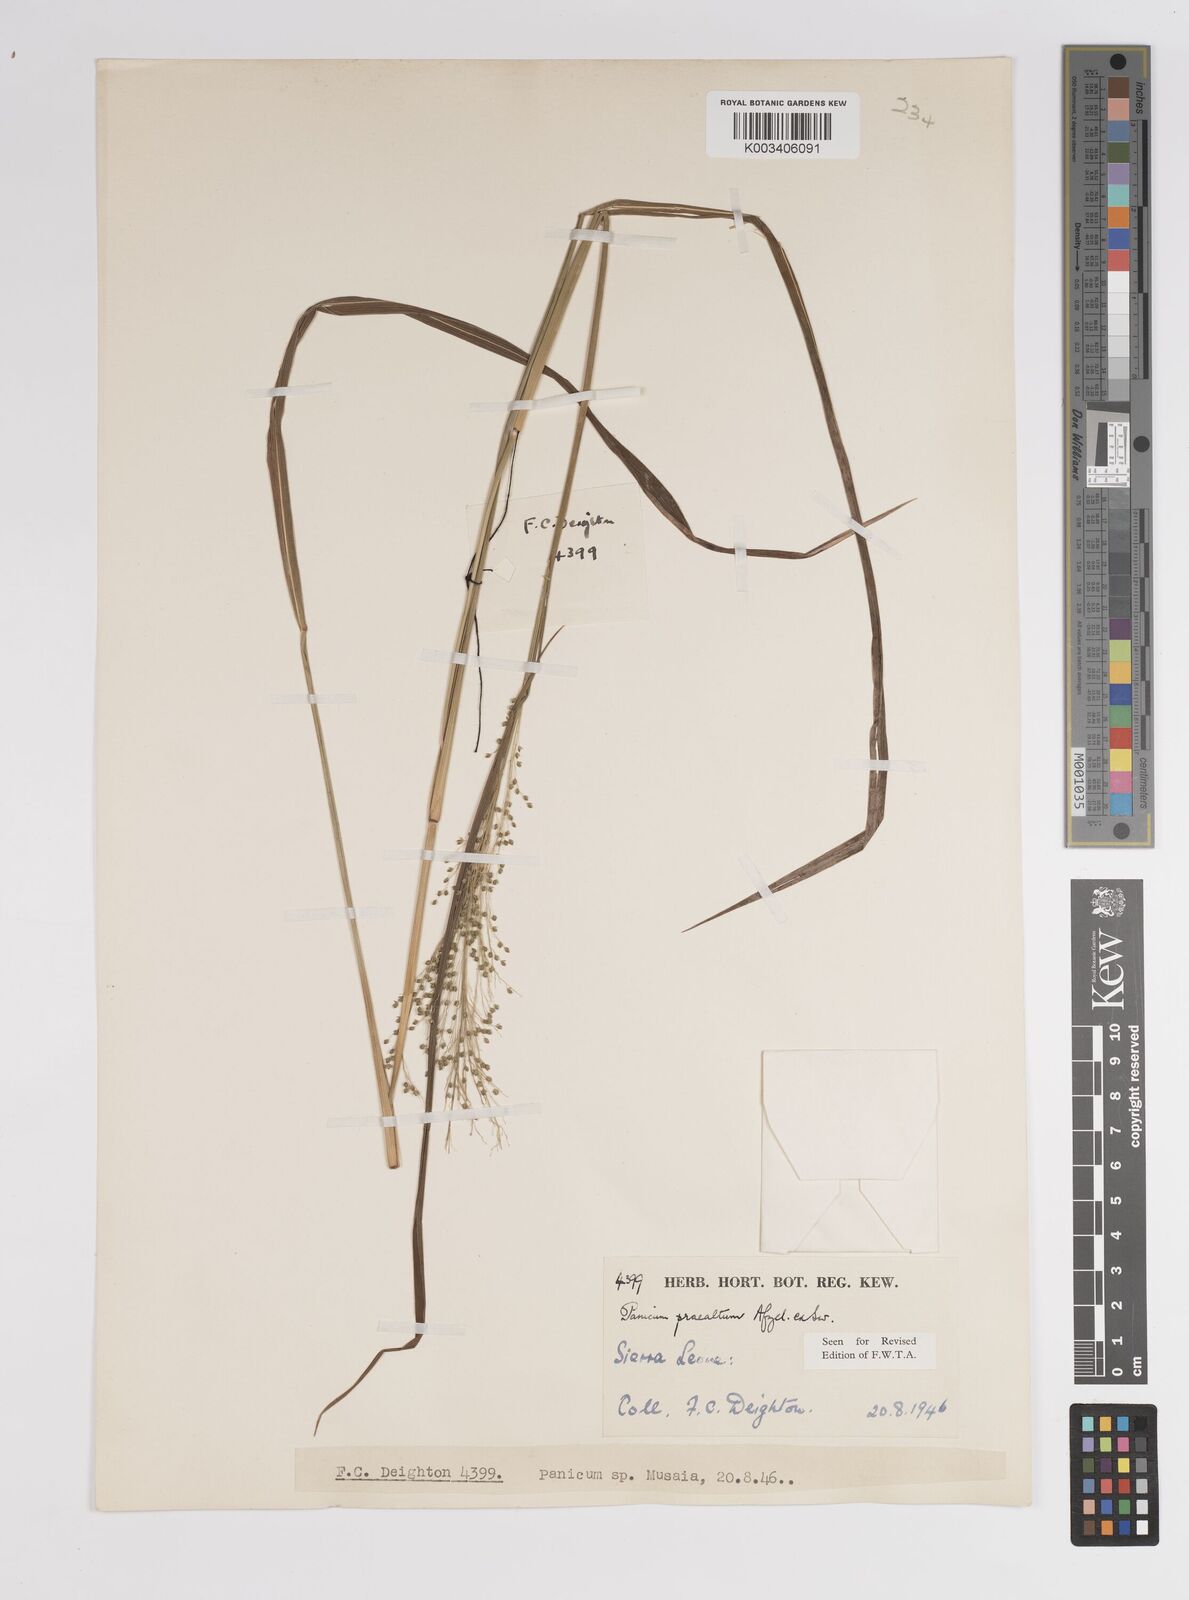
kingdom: Plantae
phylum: Tracheophyta
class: Liliopsida
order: Poales
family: Poaceae
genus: Trichanthecium
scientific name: Trichanthecium praealtum
